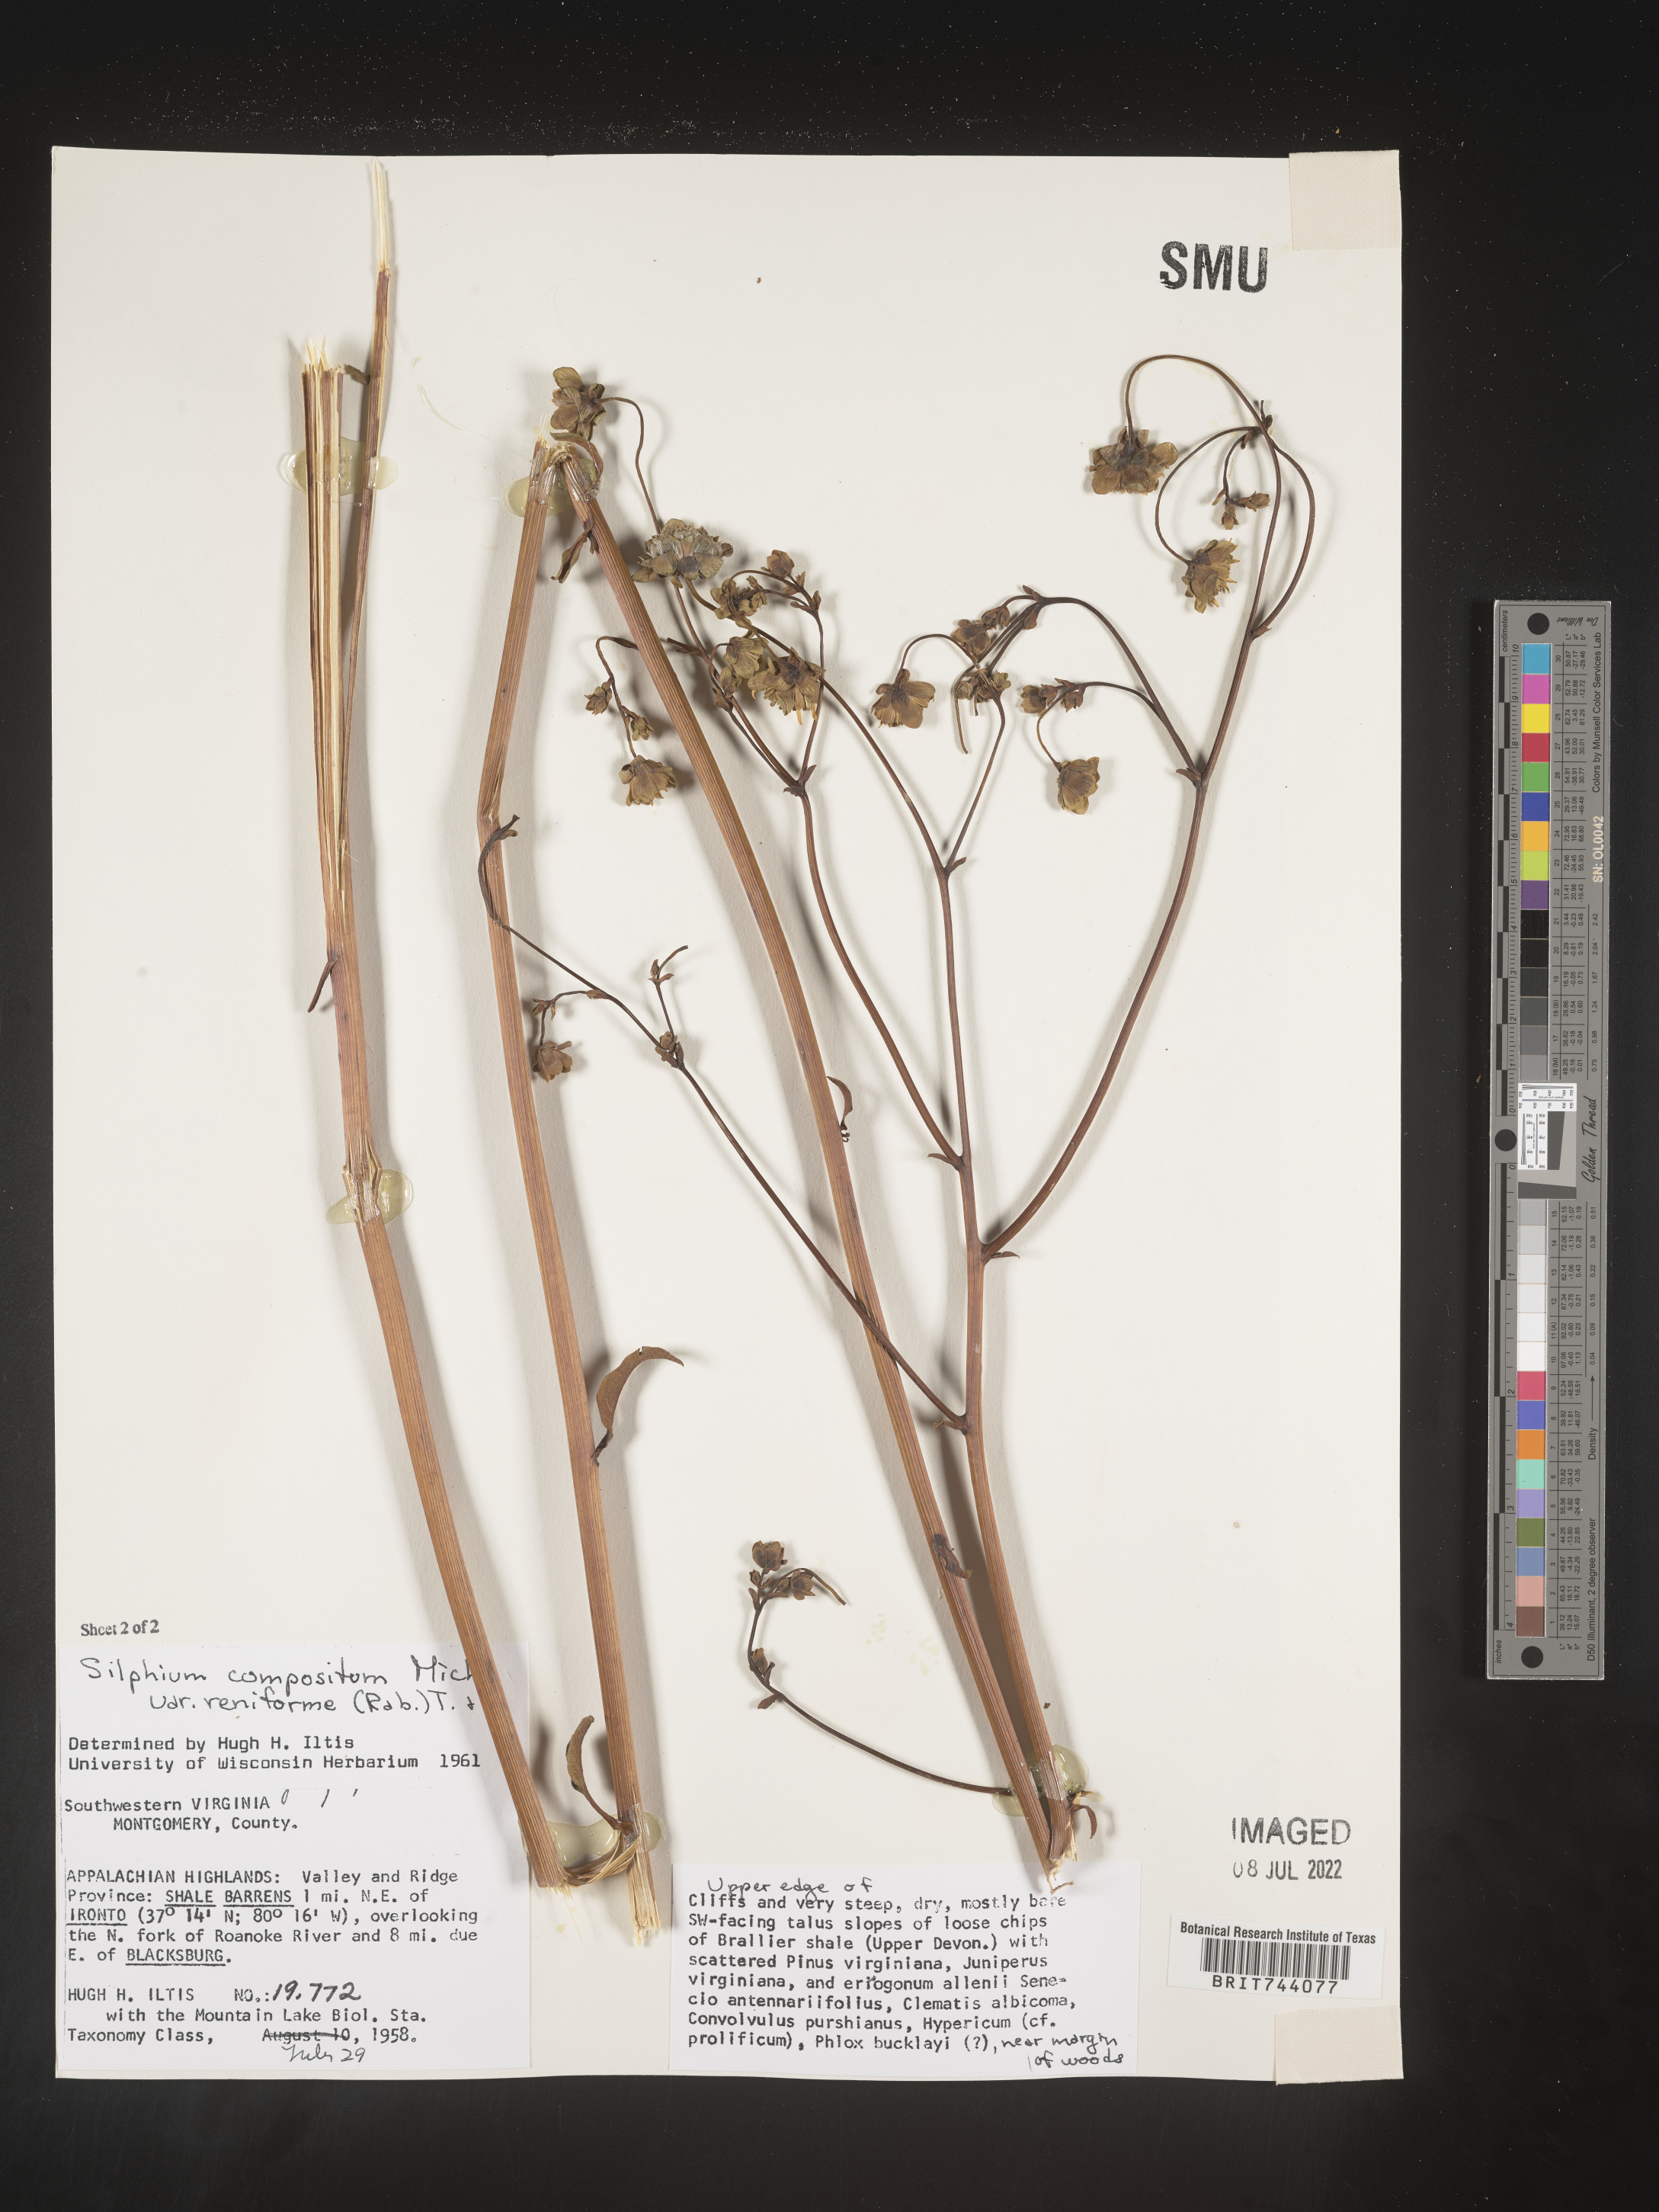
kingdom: Plantae
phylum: Tracheophyta
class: Magnoliopsida
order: Asterales
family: Asteraceae
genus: Silphium
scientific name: Silphium
